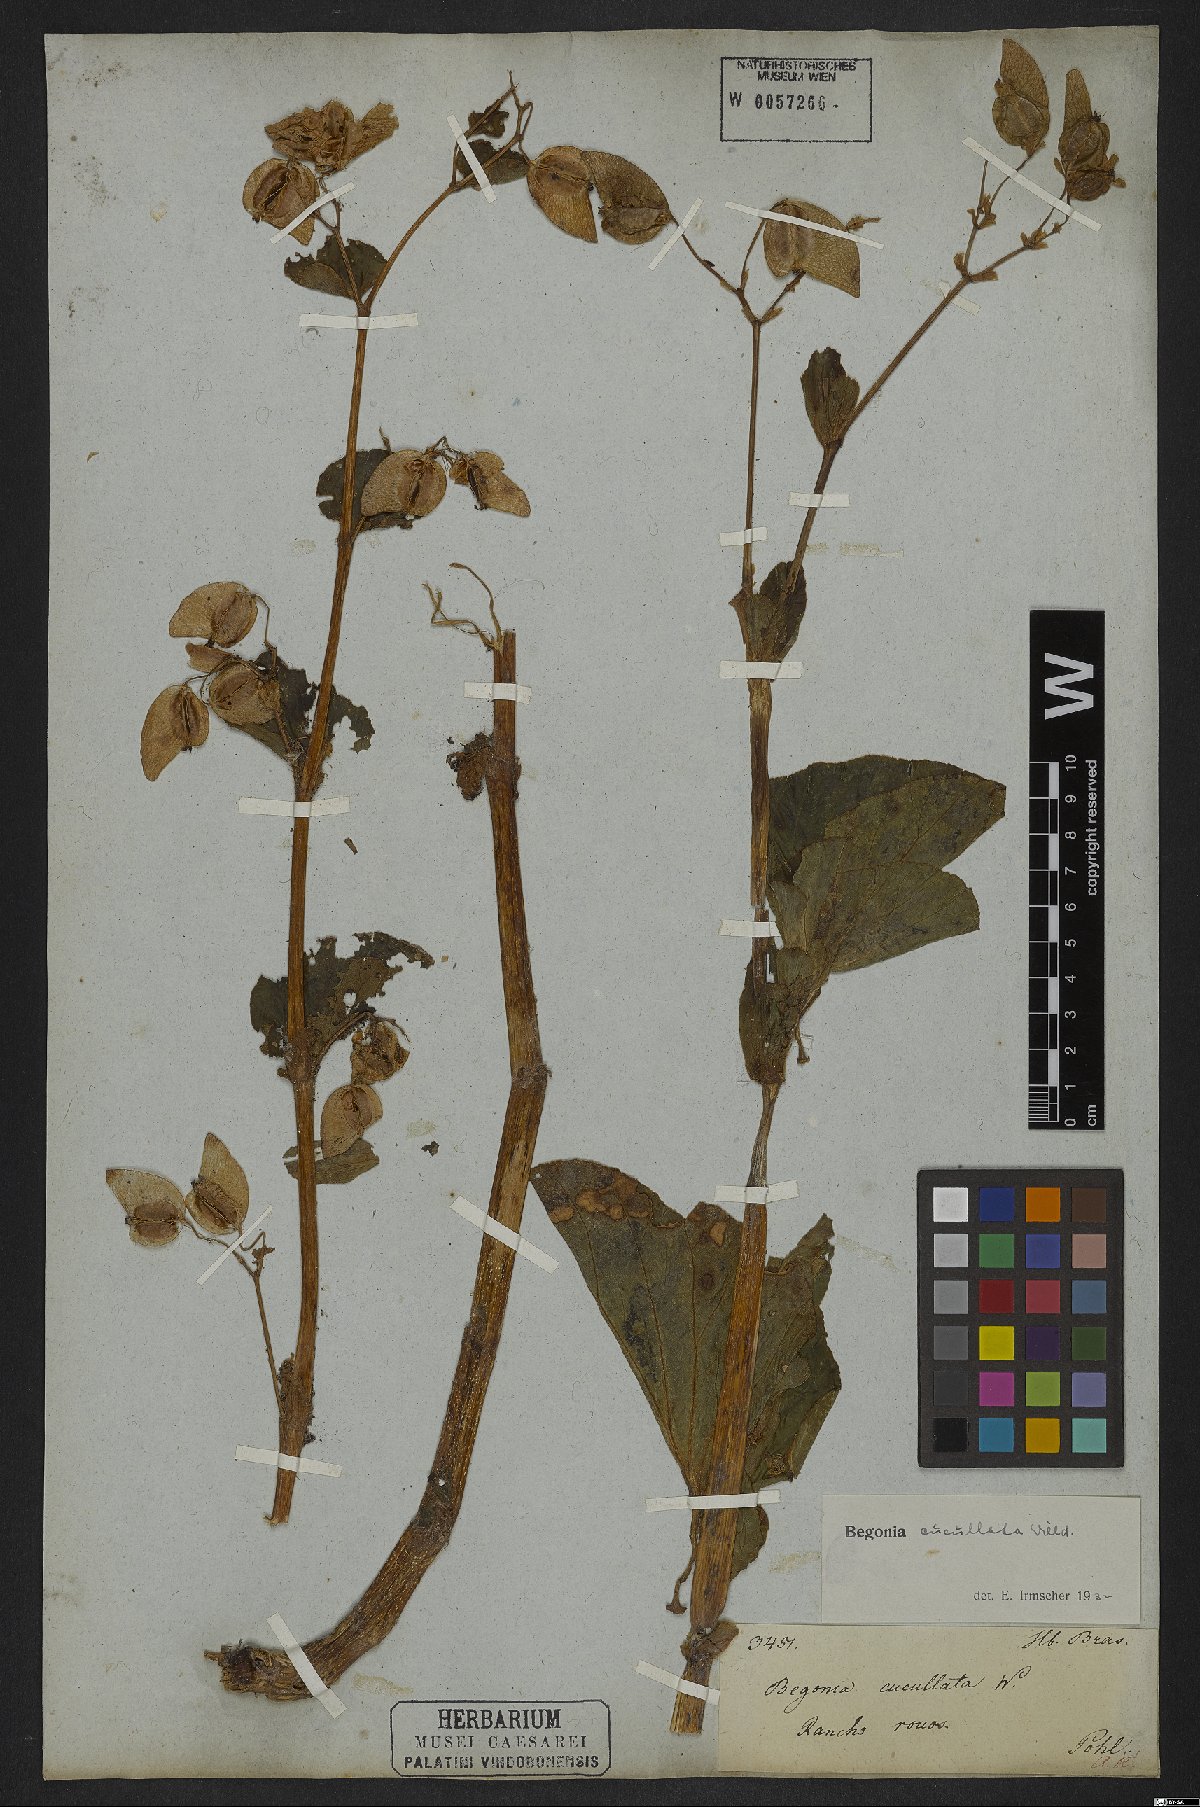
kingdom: Plantae
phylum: Tracheophyta
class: Magnoliopsida
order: Cucurbitales
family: Begoniaceae
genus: Begonia
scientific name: Begonia cucullata
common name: Clubbed begonia
